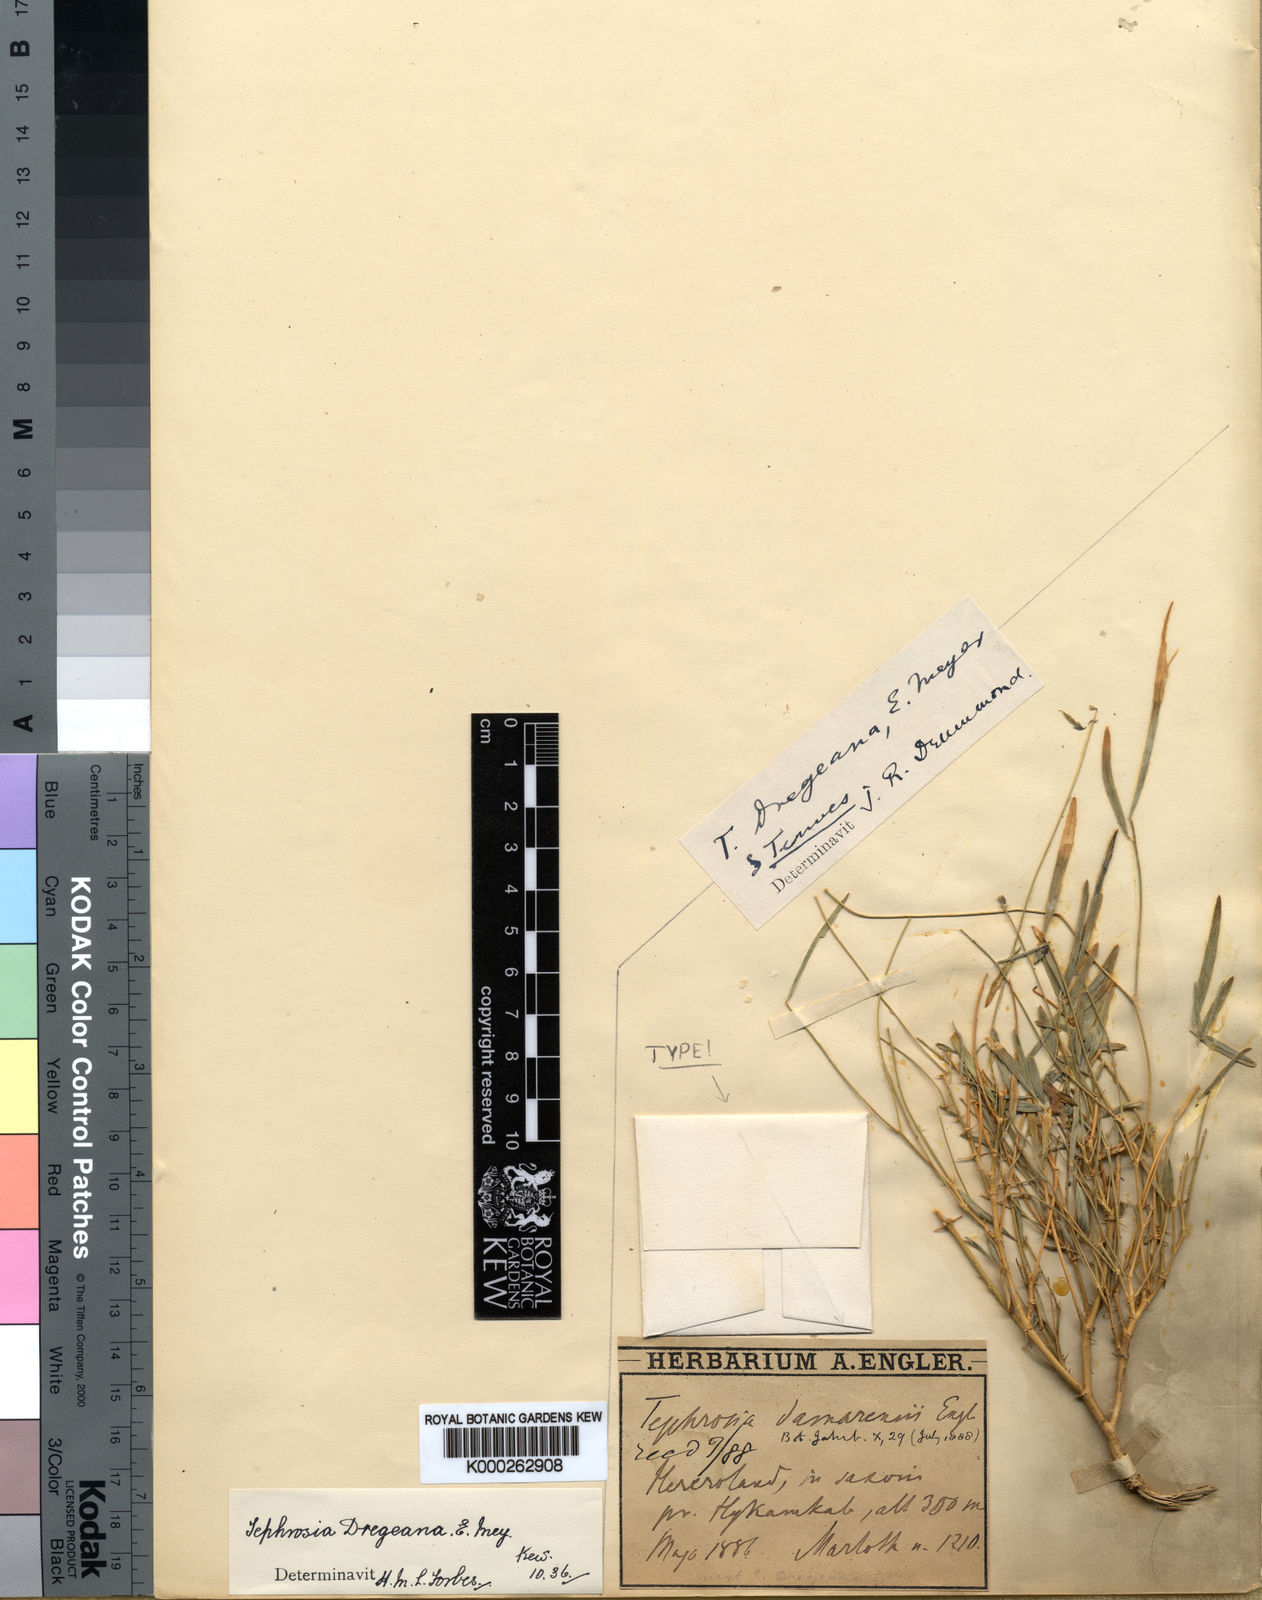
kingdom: Plantae
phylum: Tracheophyta
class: Magnoliopsida
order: Fabales
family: Fabaceae
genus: Tephrosia
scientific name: Tephrosia dregeana
